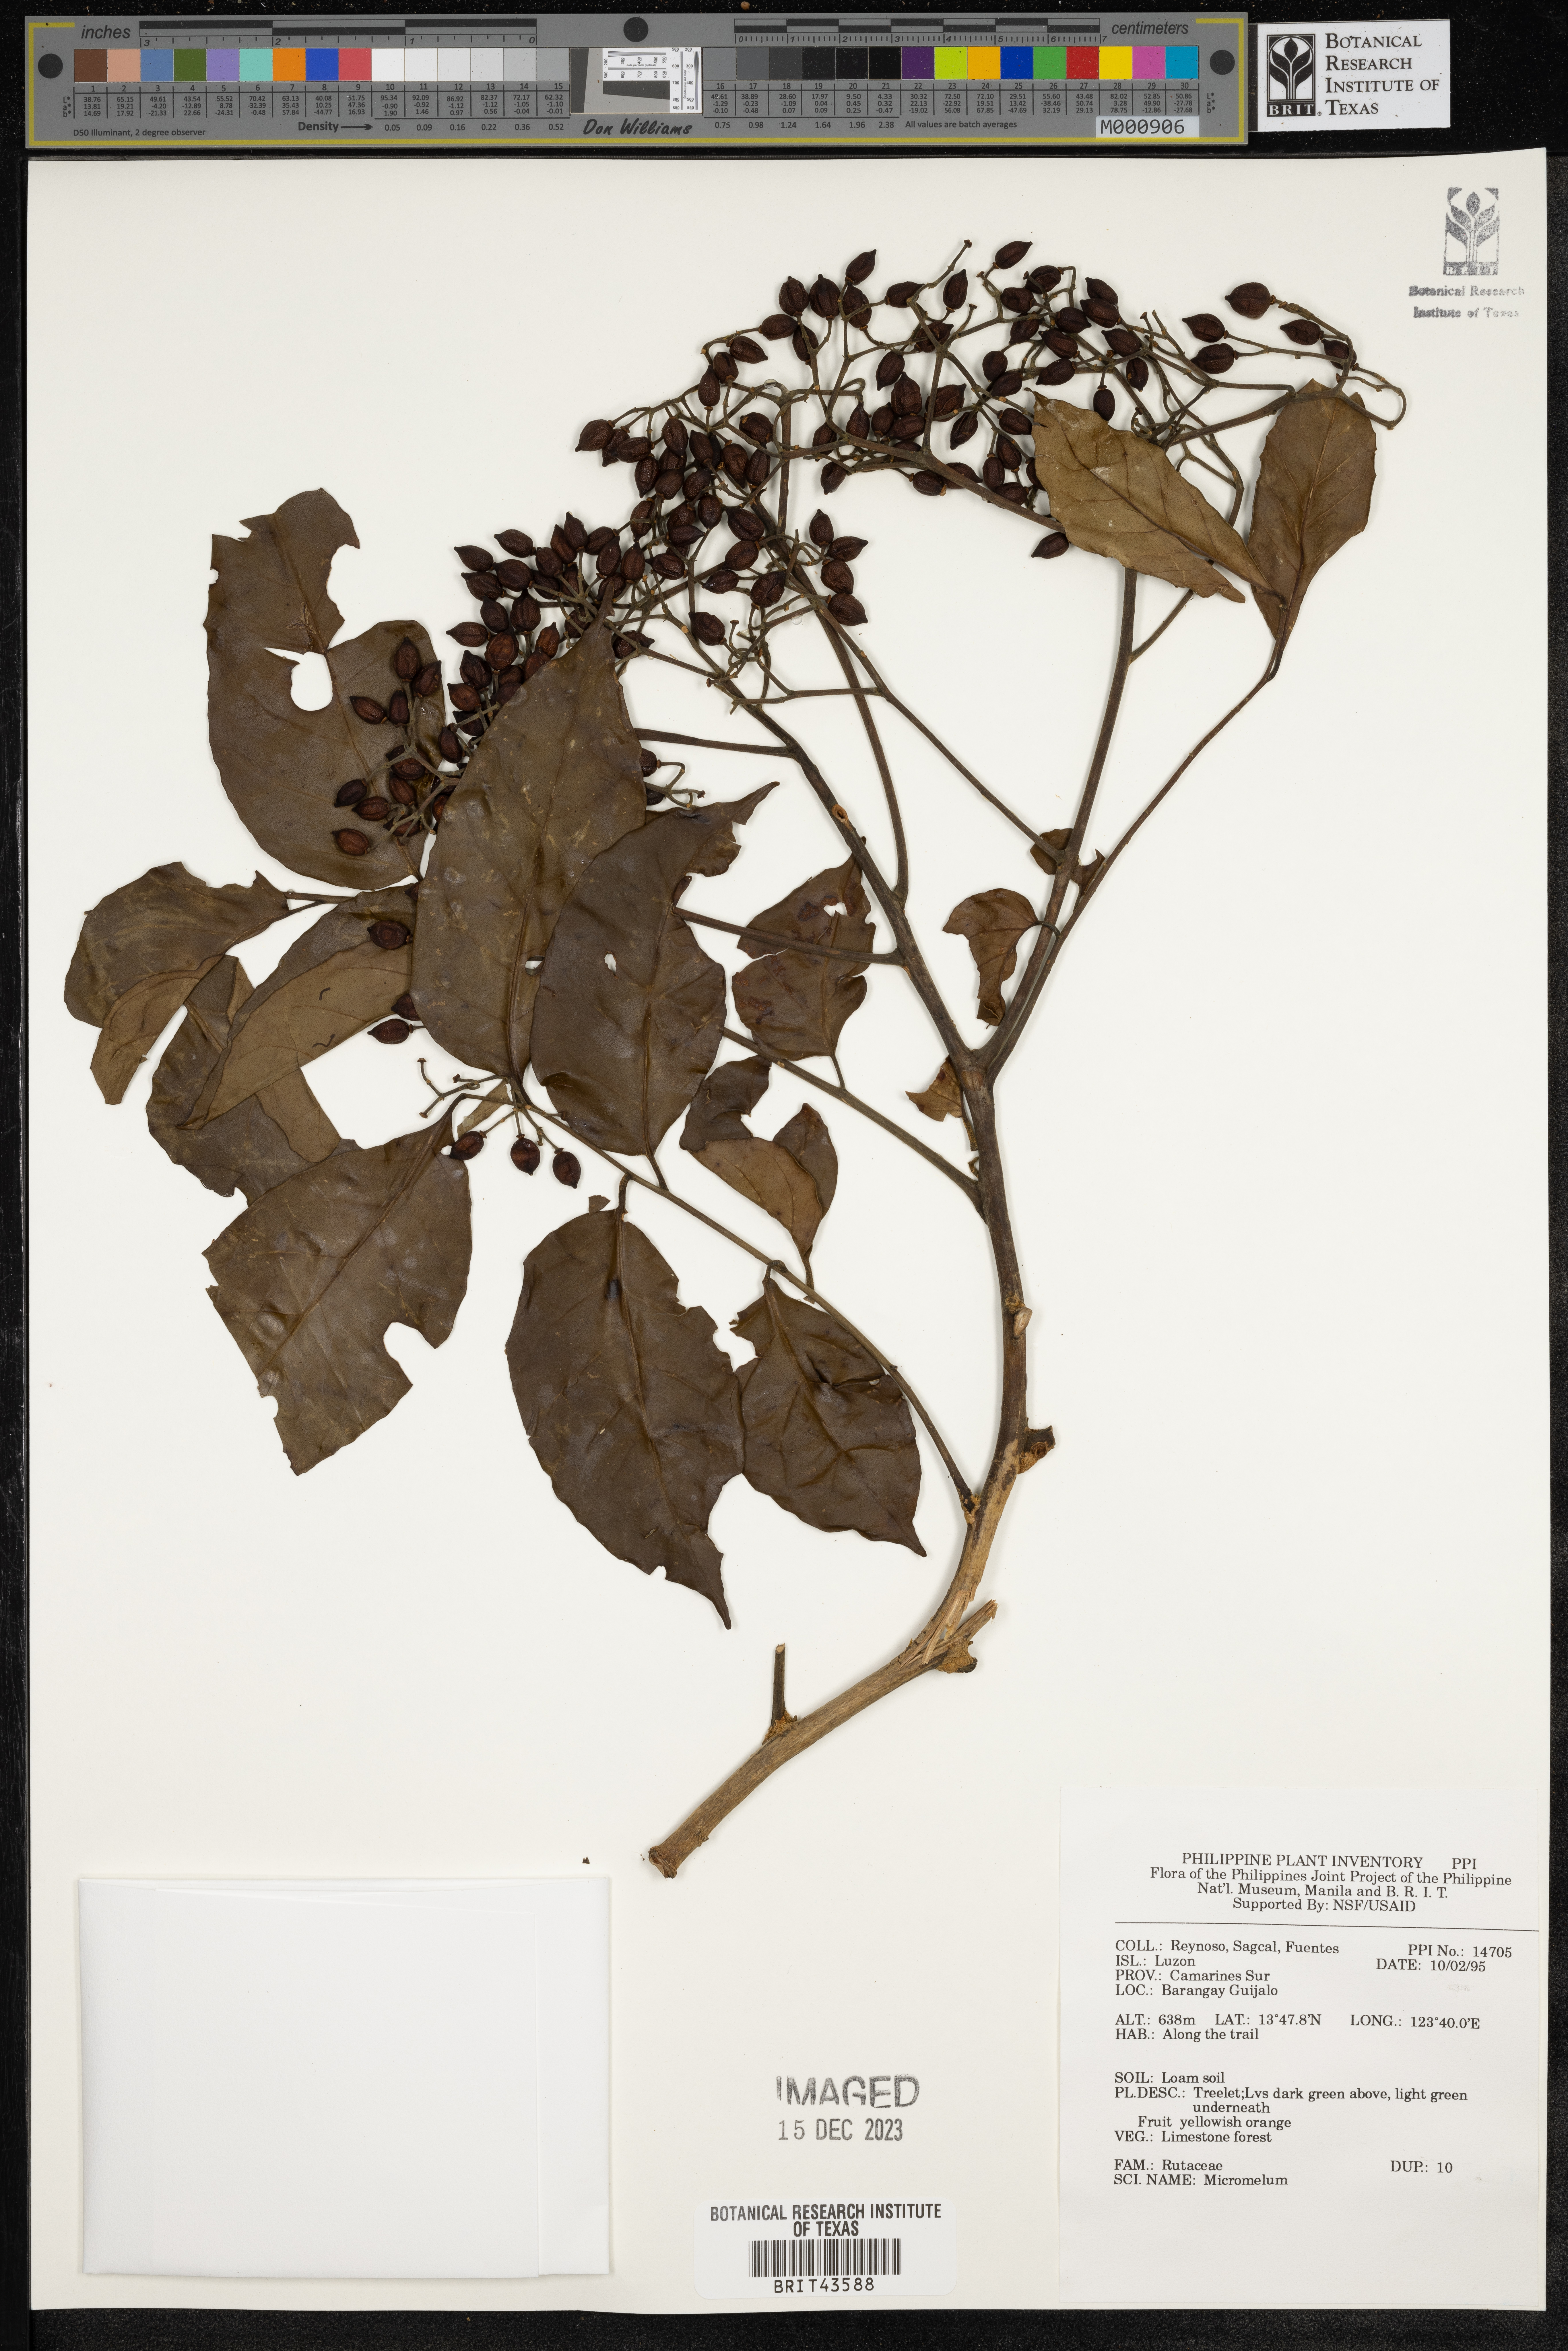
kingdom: Plantae
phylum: Tracheophyta
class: Magnoliopsida
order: Sapindales
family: Rutaceae
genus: Micromelum
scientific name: Micromelum
